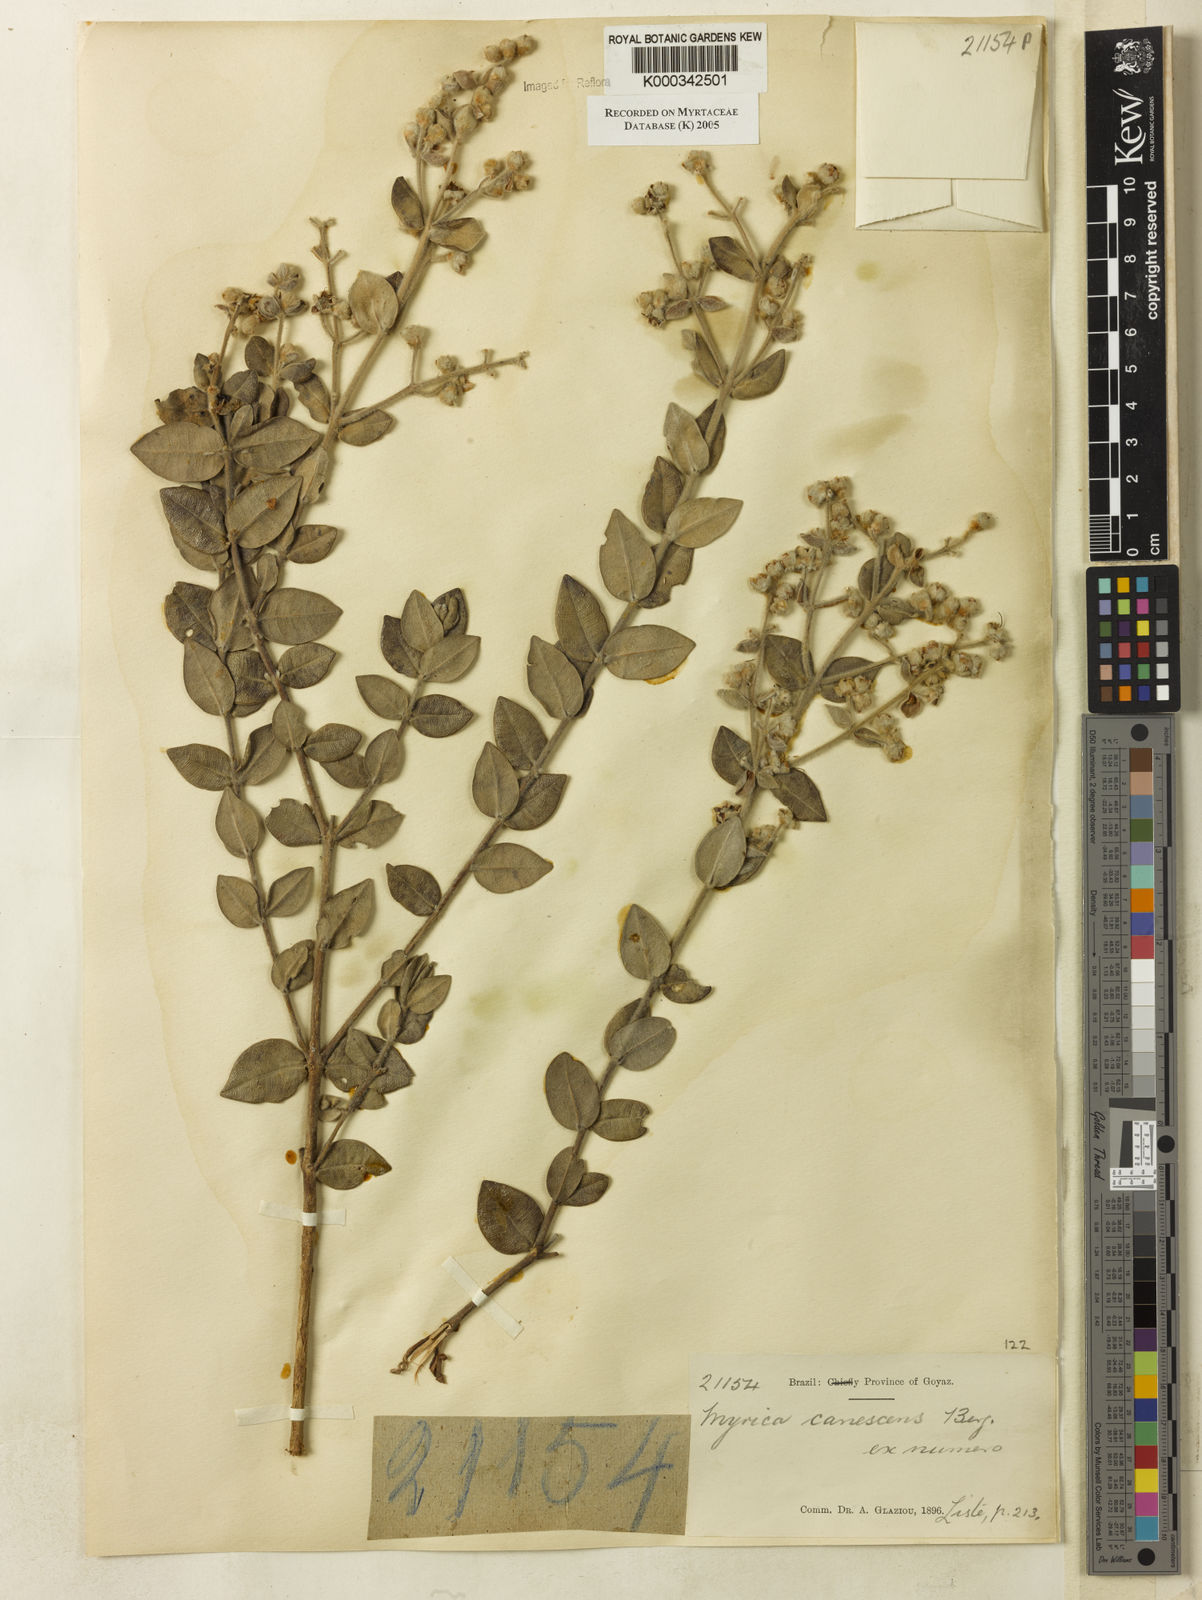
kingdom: Plantae
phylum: Tracheophyta
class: Magnoliopsida
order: Myrtales
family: Myrtaceae
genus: Myrcia
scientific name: Myrcia canescens
